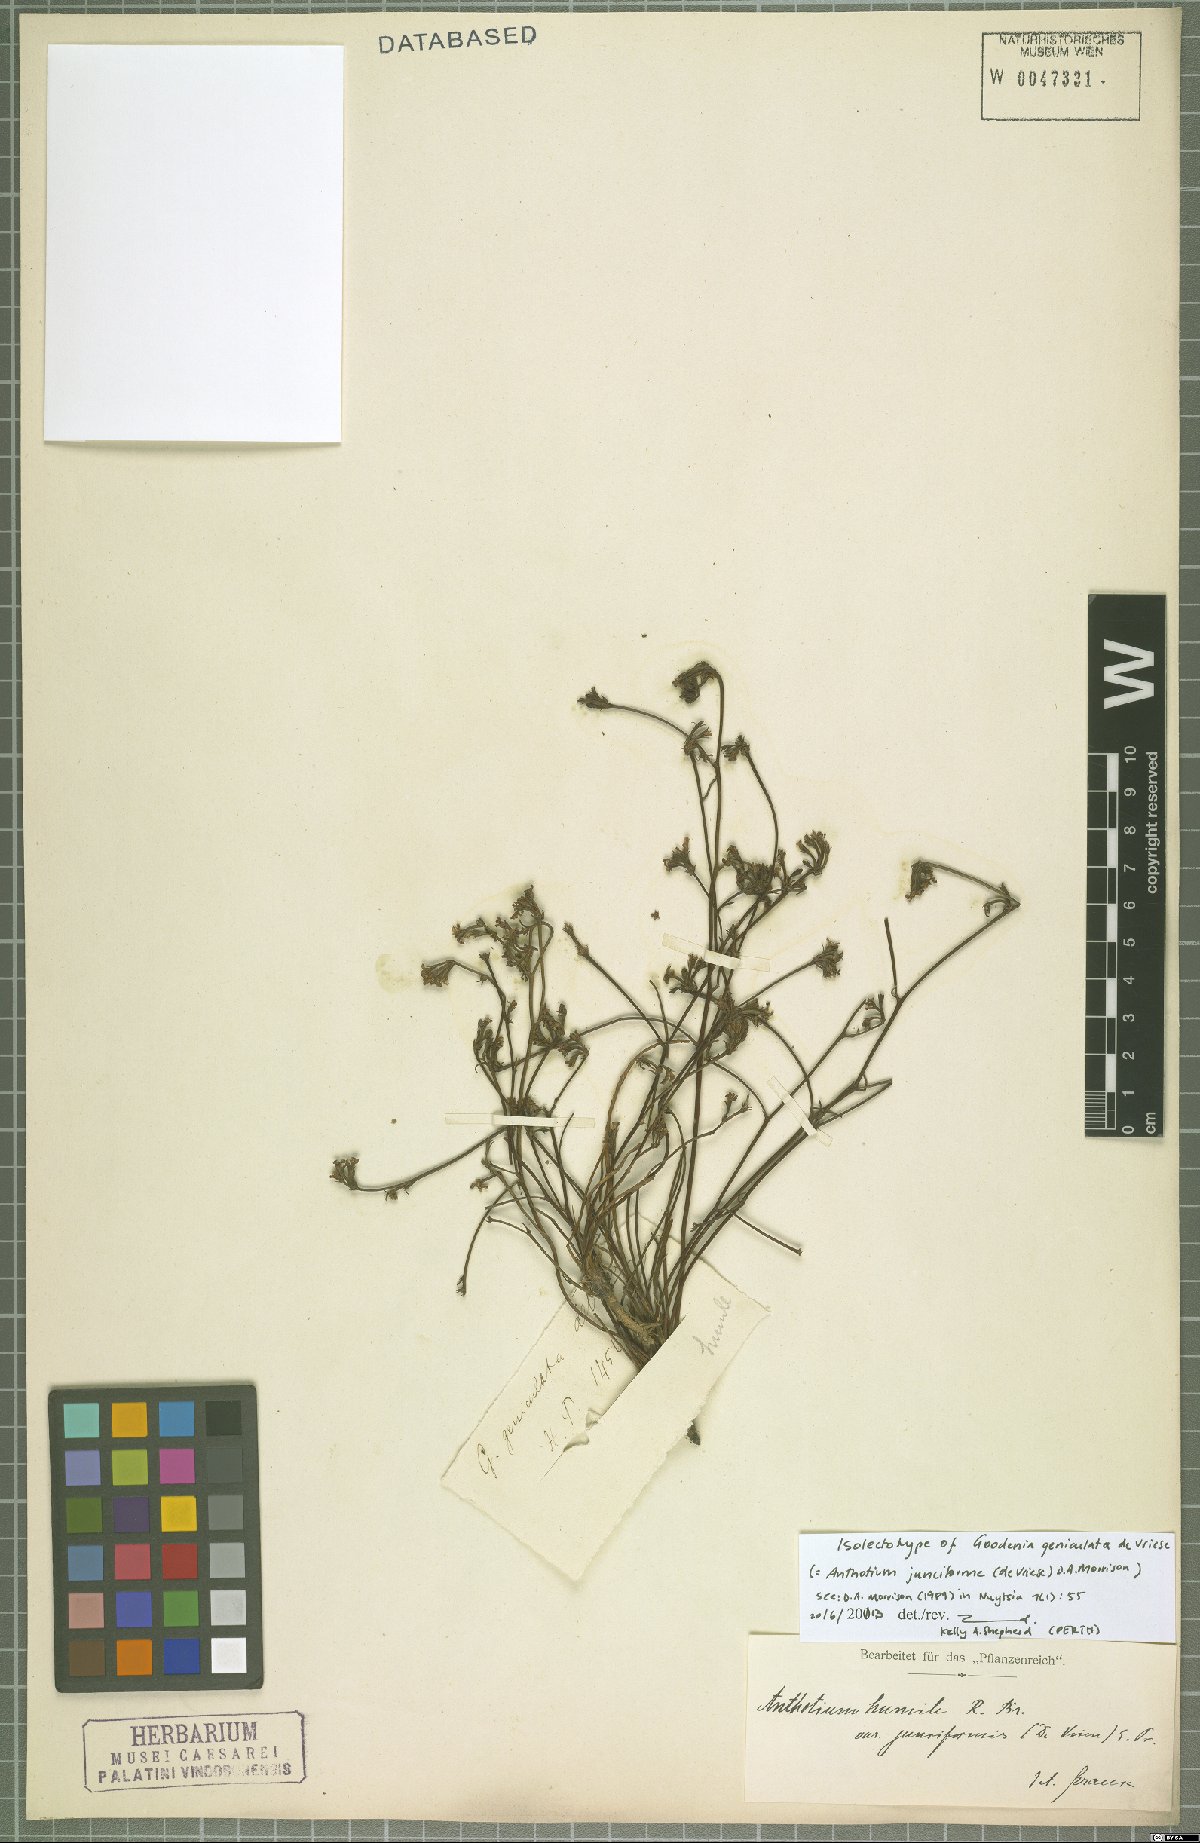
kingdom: Plantae
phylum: Tracheophyta
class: Magnoliopsida
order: Asterales
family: Goodeniaceae
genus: Anthotium
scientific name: Anthotium junciforme
